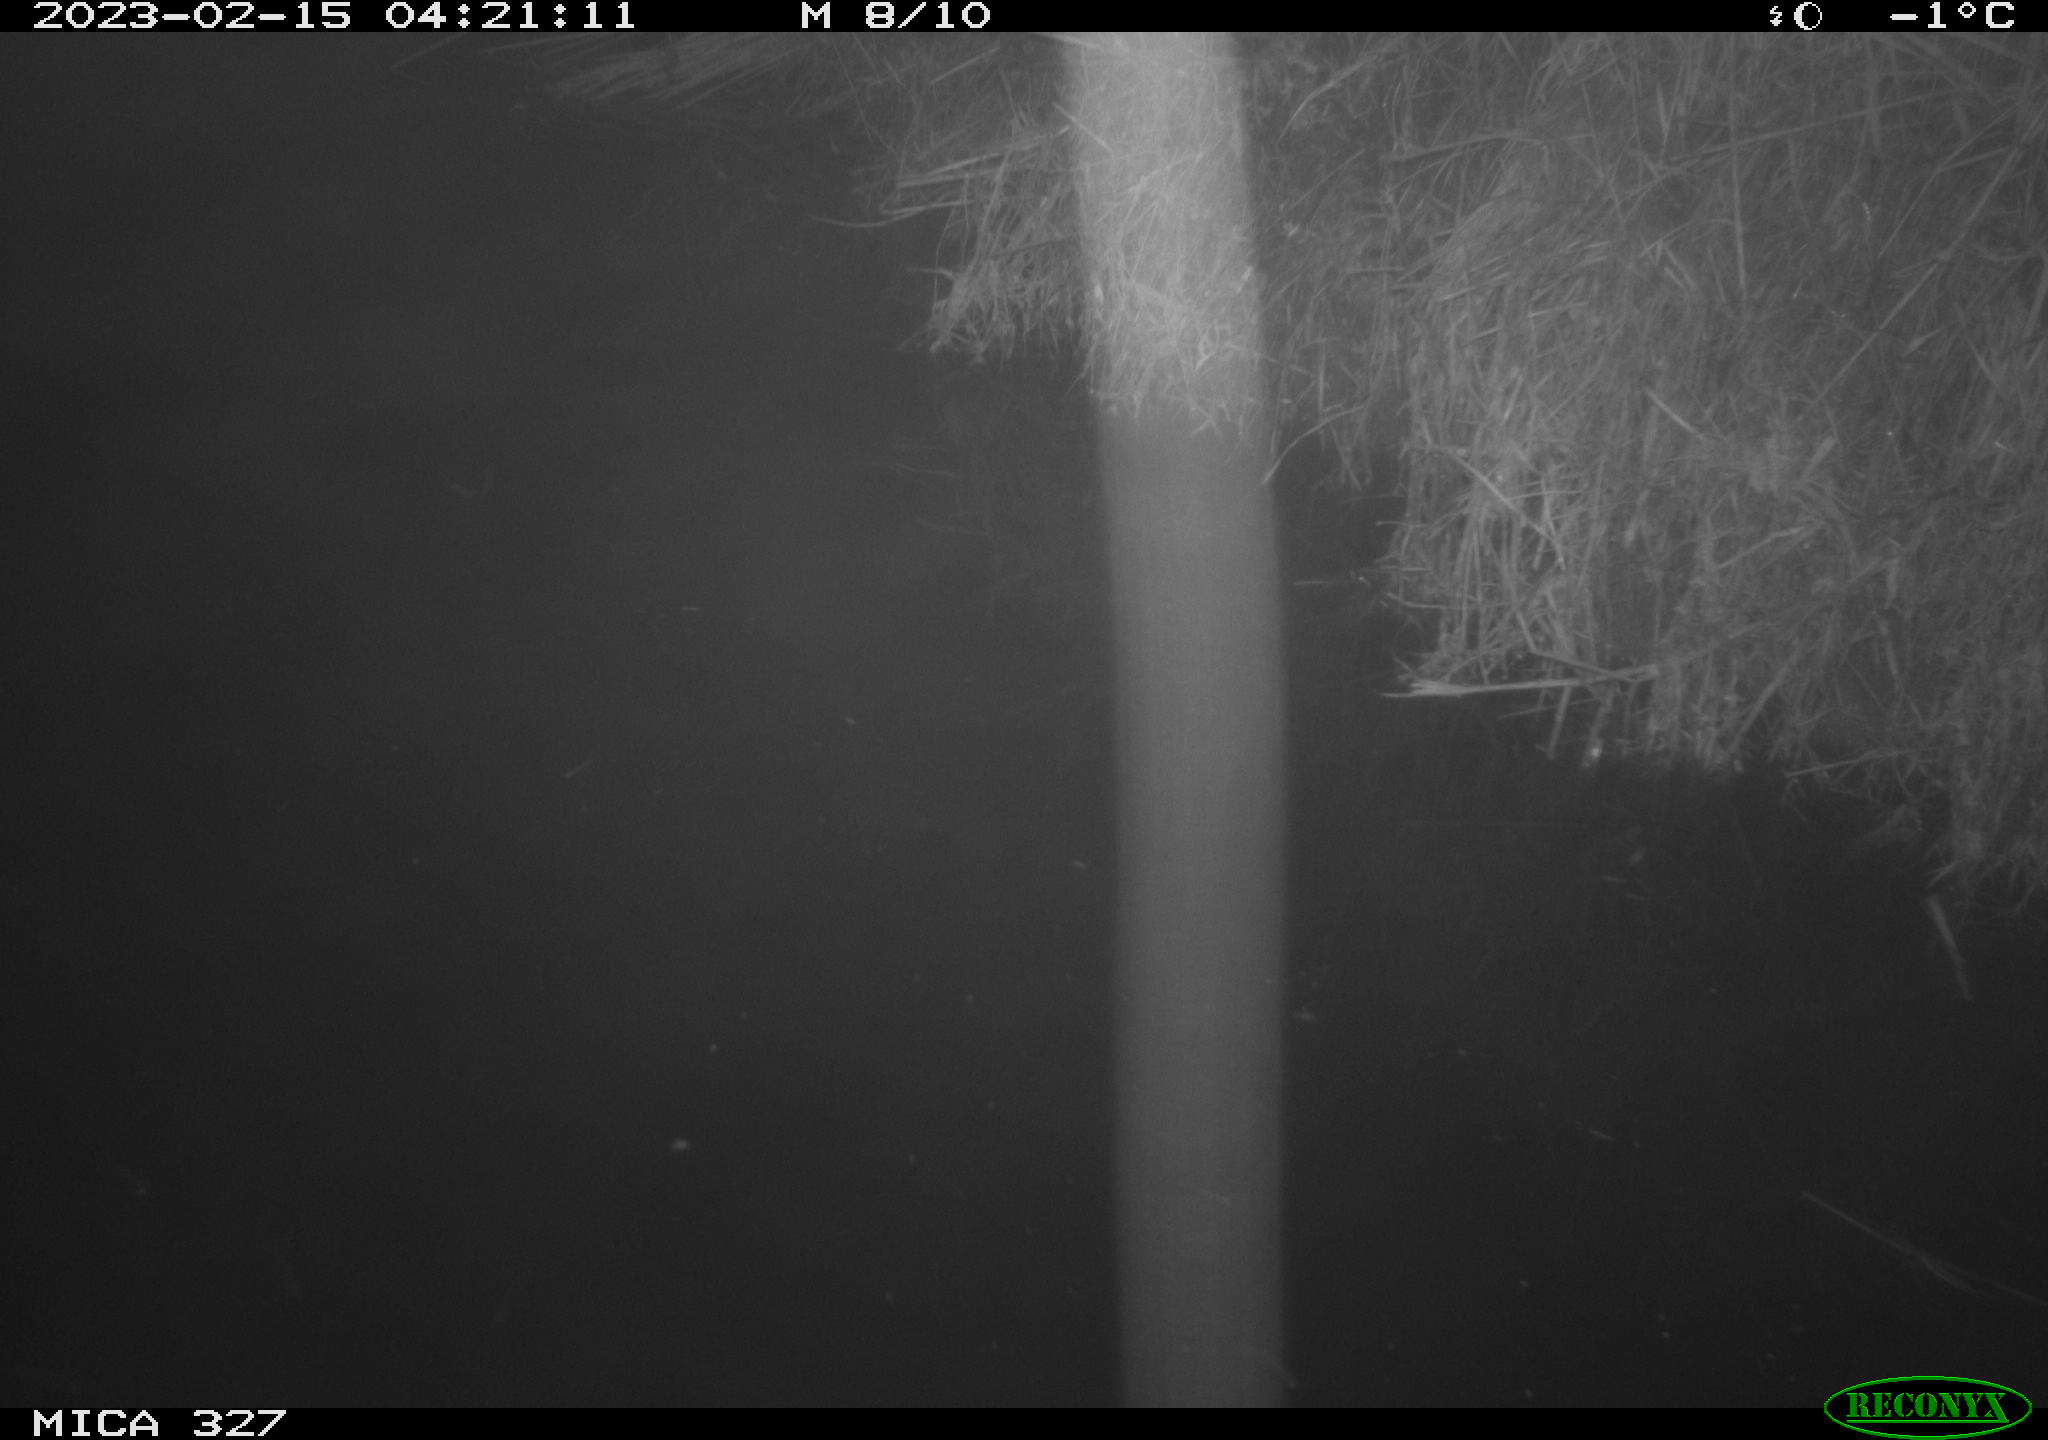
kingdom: Animalia
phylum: Chordata
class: Mammalia
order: Rodentia
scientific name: Rodentia
